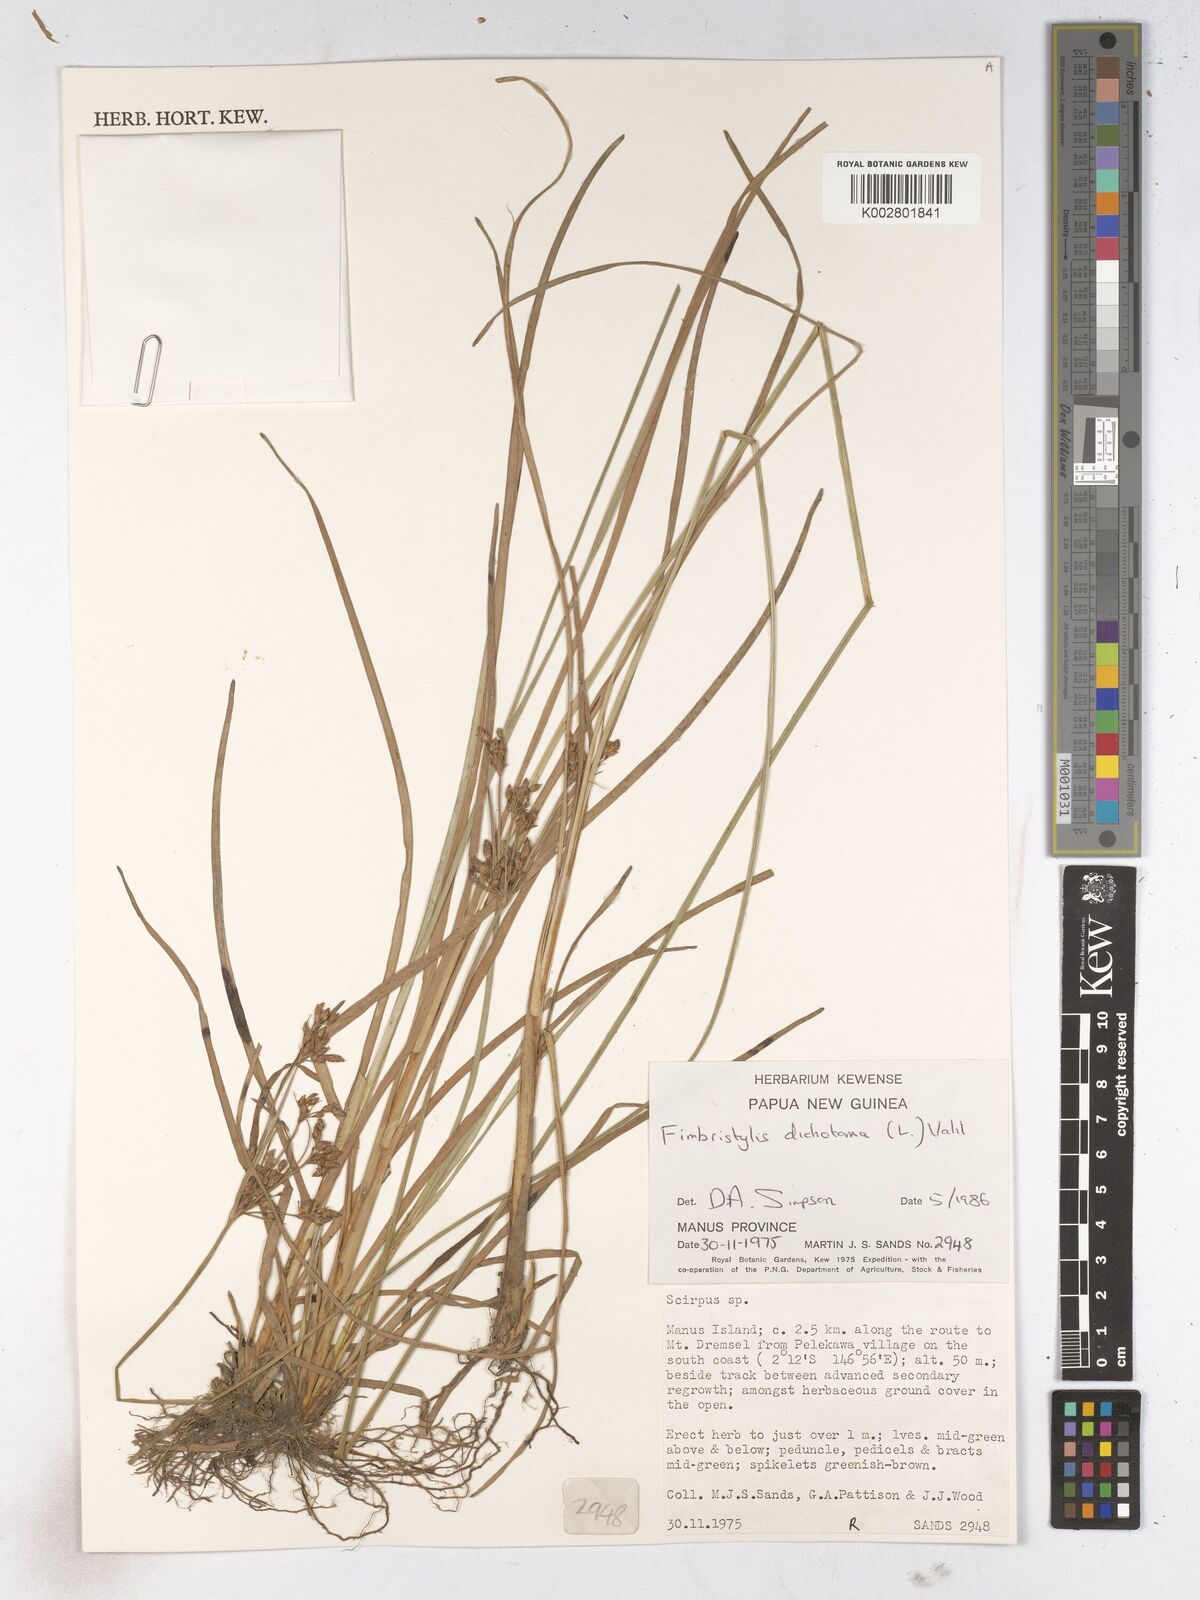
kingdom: Plantae
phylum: Tracheophyta
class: Liliopsida
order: Poales
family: Cyperaceae
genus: Fimbristylis
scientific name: Fimbristylis dichotoma
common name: Forked fimbry
